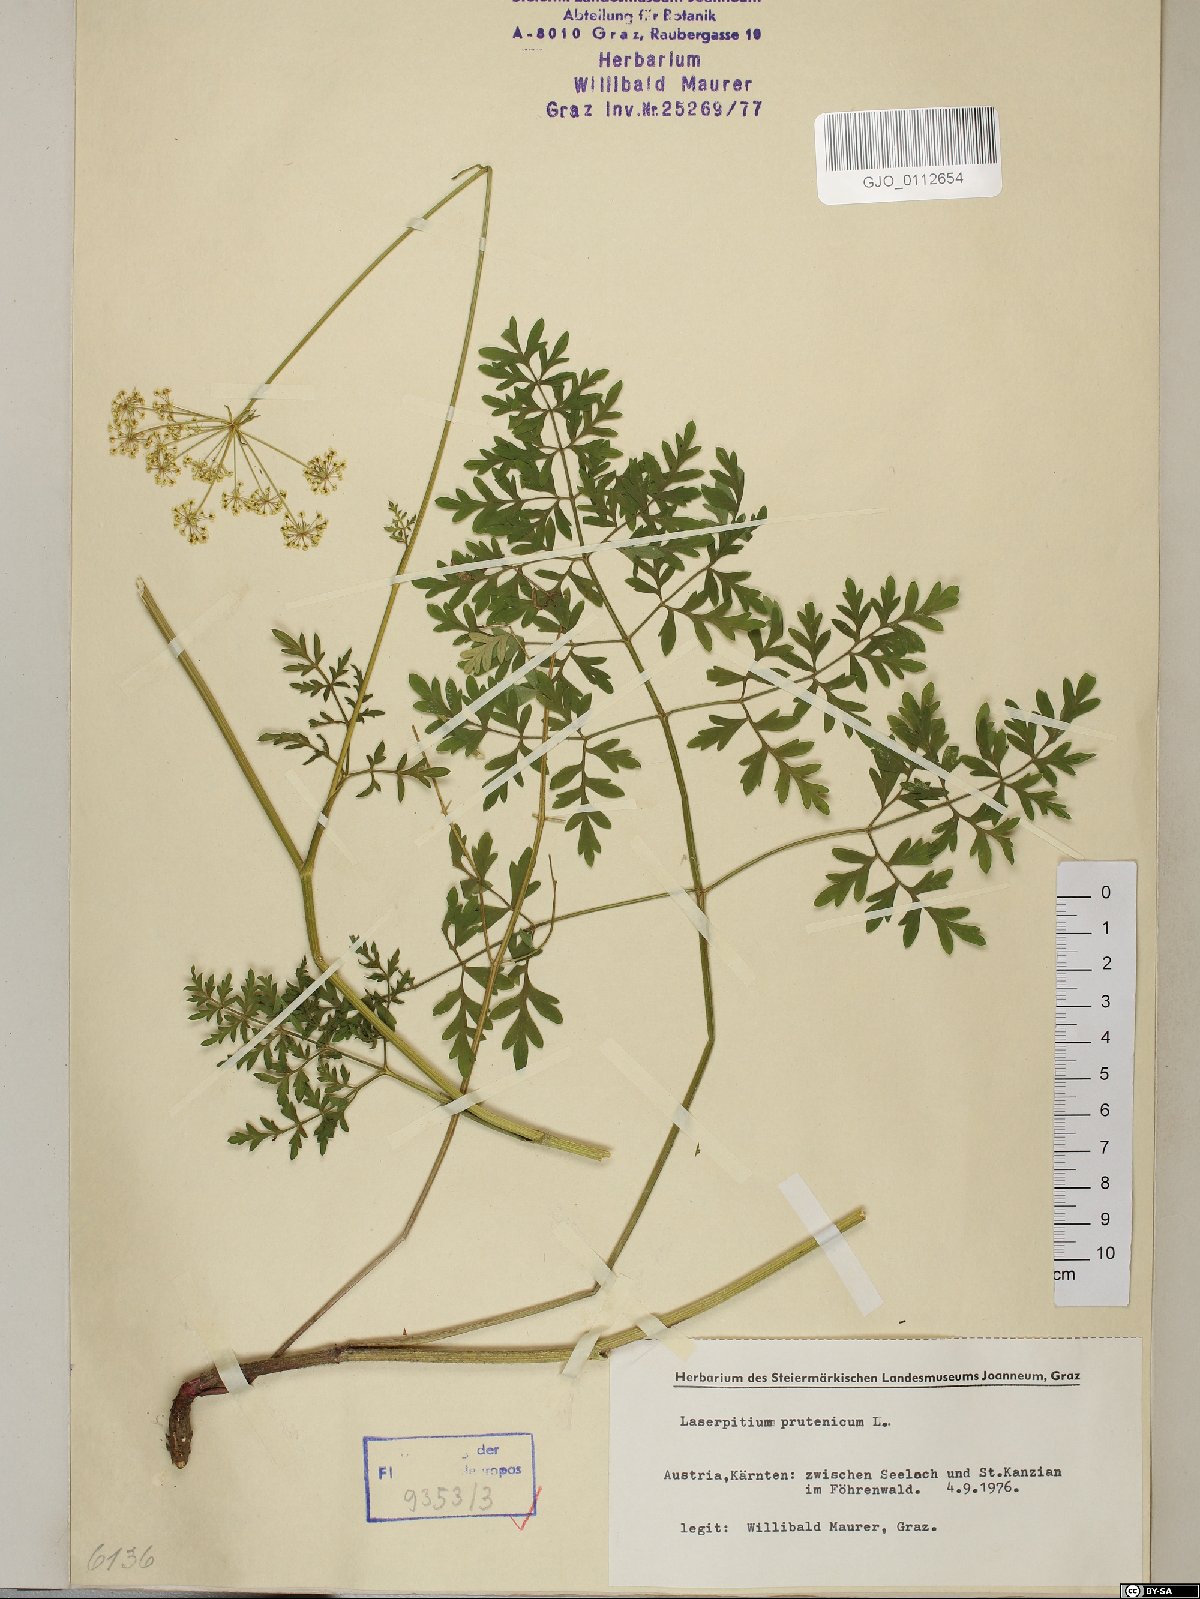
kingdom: Plantae
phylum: Tracheophyta
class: Magnoliopsida
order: Apiales
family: Apiaceae
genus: Silphiodaucus
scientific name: Silphiodaucus prutenicus
